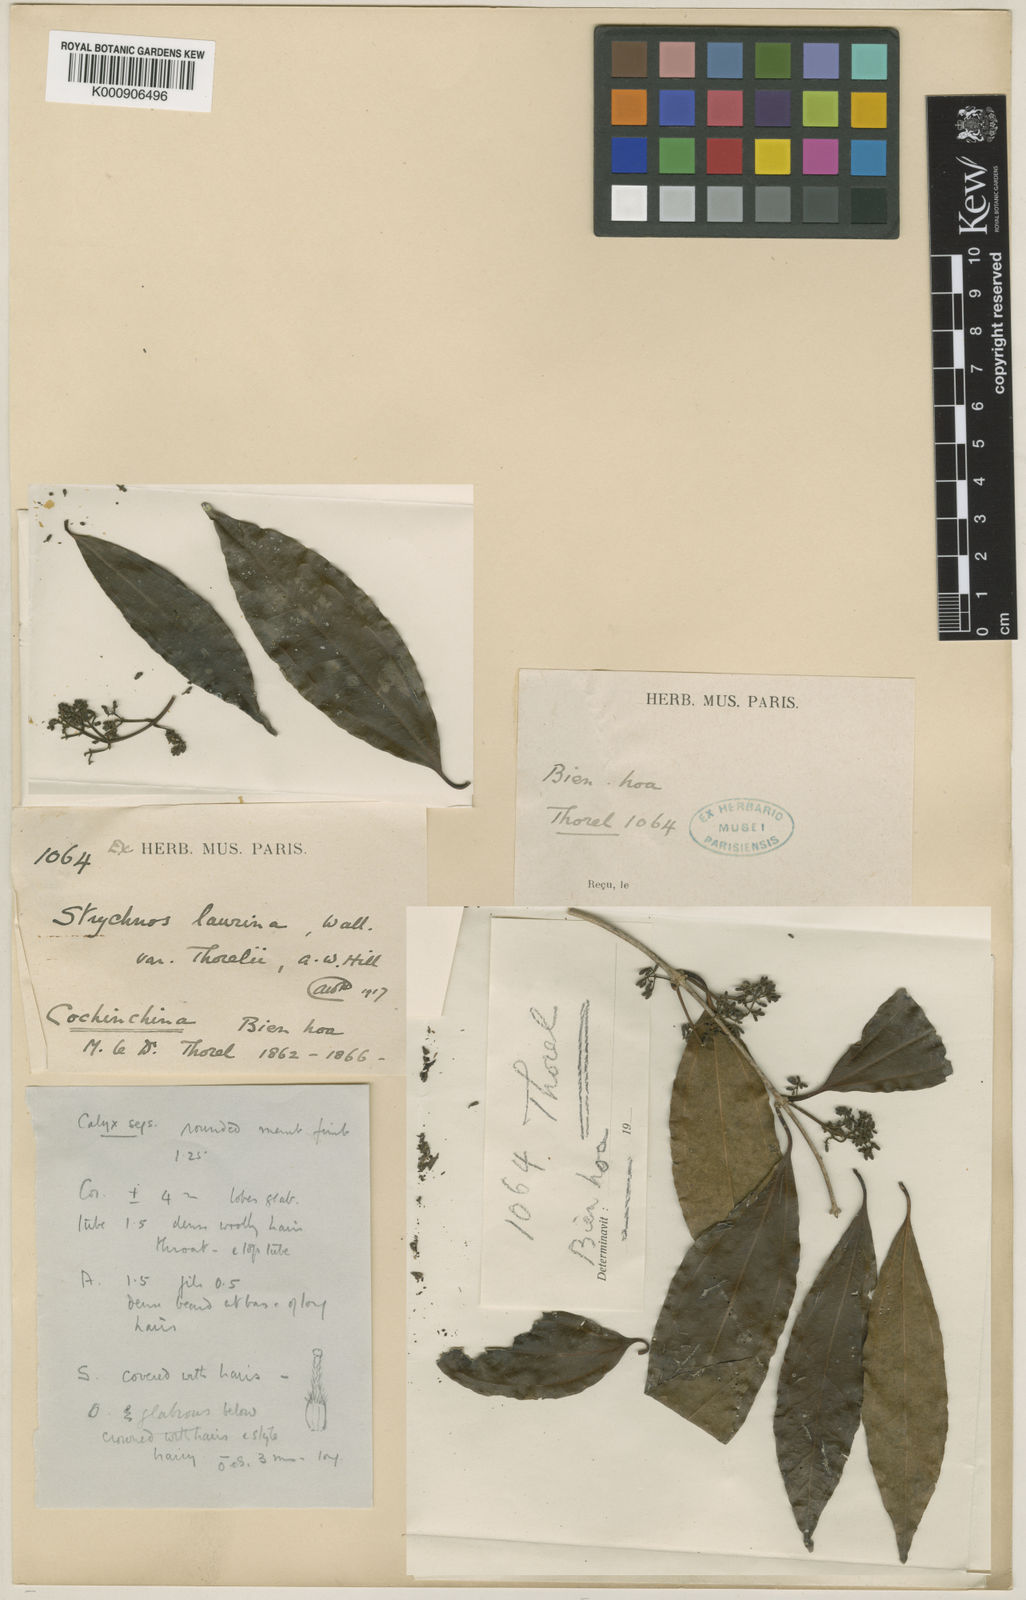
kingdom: Plantae
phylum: Tracheophyta
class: Magnoliopsida
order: Gentianales
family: Loganiaceae
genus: Strychnos
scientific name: Strychnos minor
